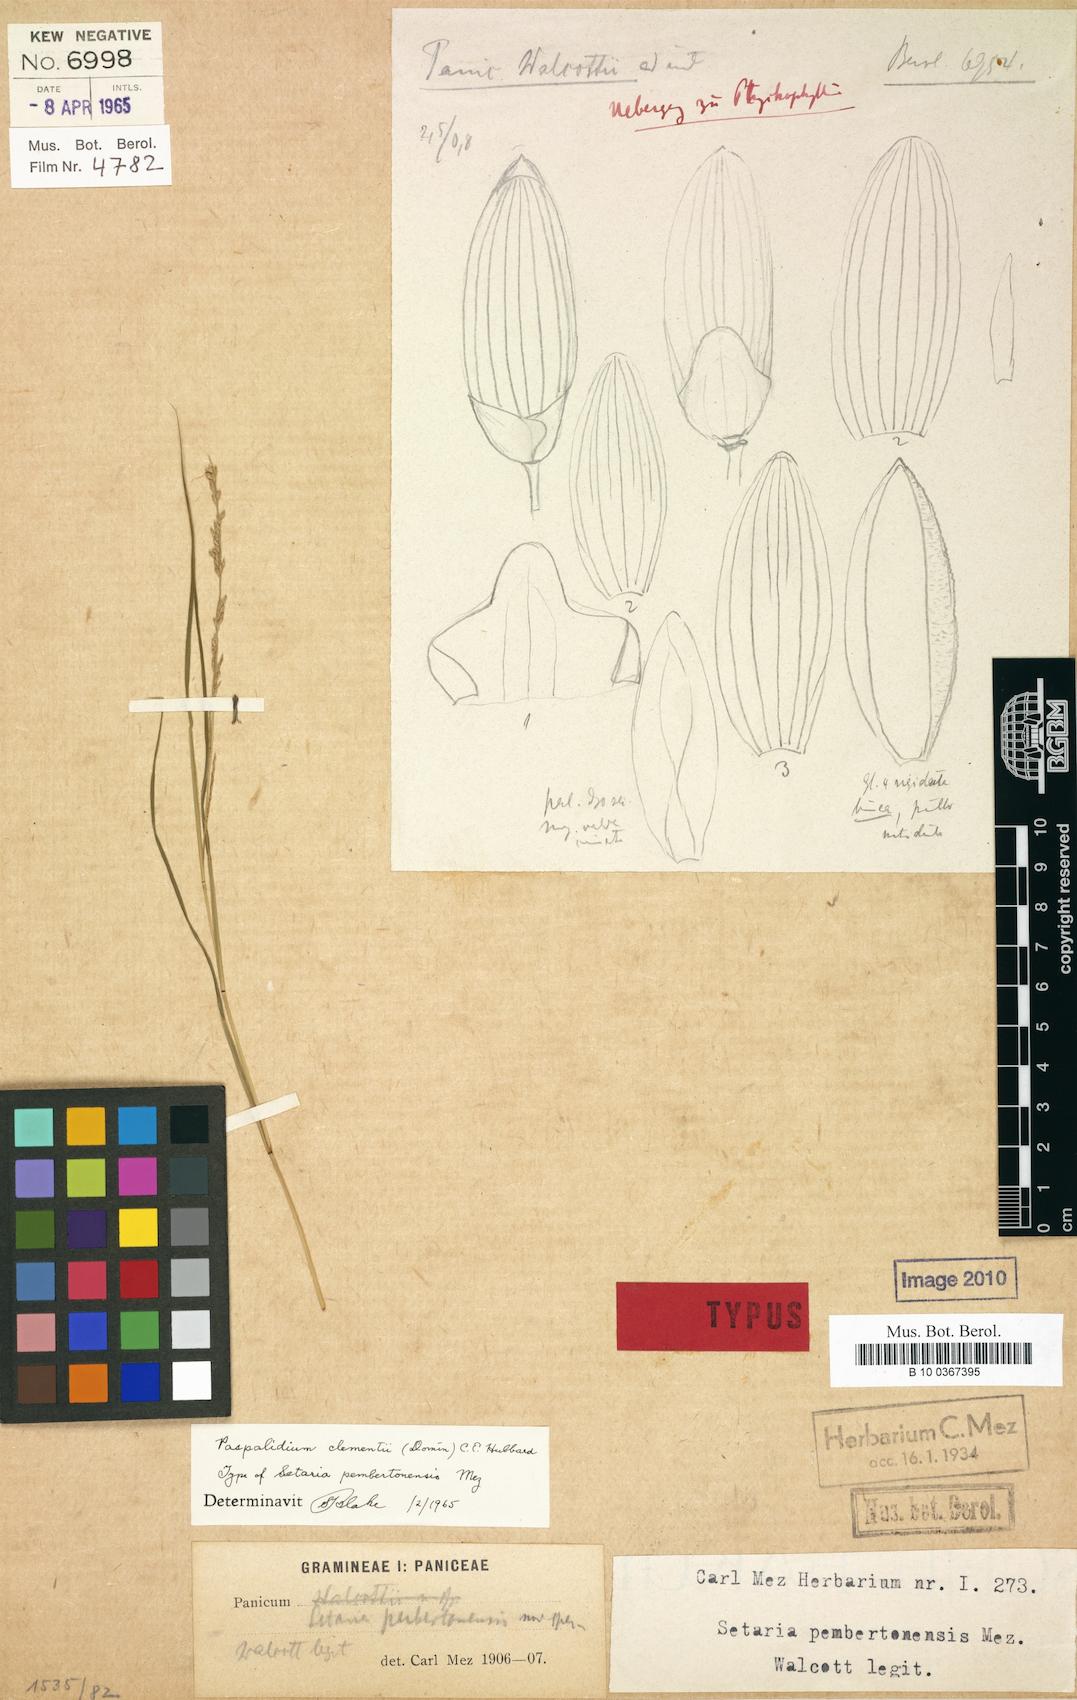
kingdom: Plantae
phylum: Tracheophyta
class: Liliopsida
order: Poales
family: Poaceae
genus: Setaria
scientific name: Setaria clementii
